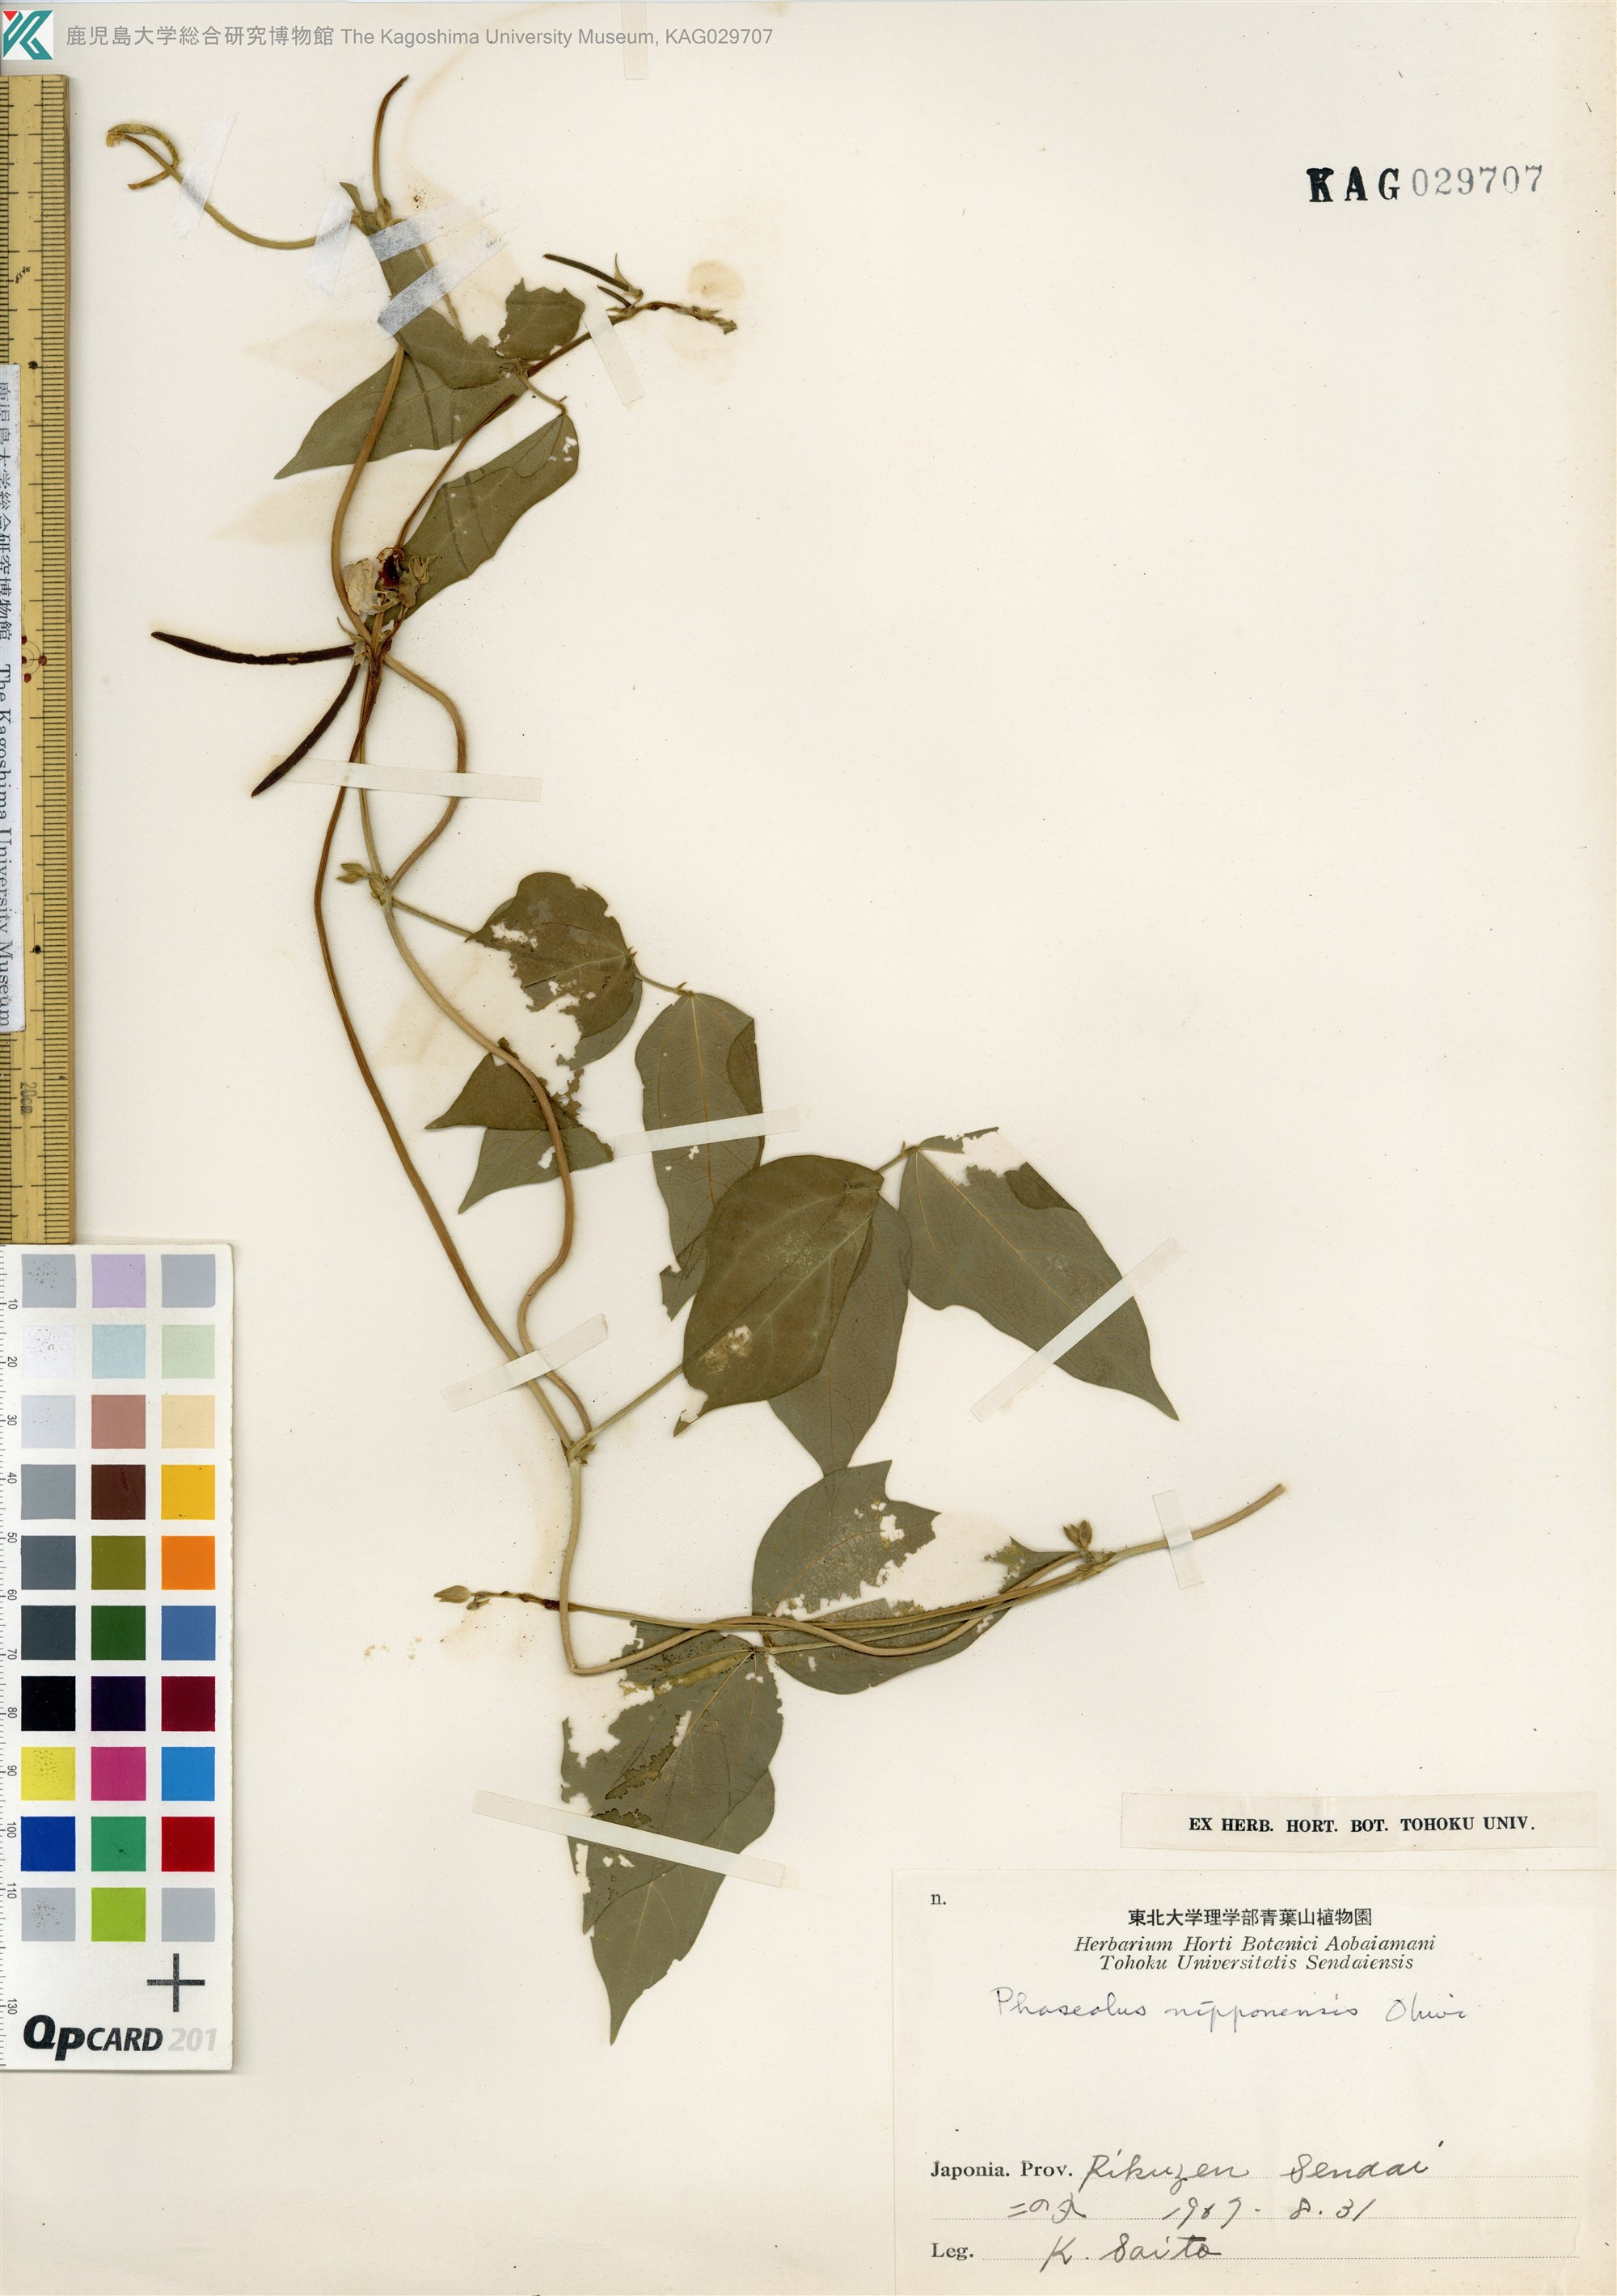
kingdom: Plantae
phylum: Tracheophyta
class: Magnoliopsida
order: Fabales
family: Fabaceae
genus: Vigna
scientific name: Vigna angularis
